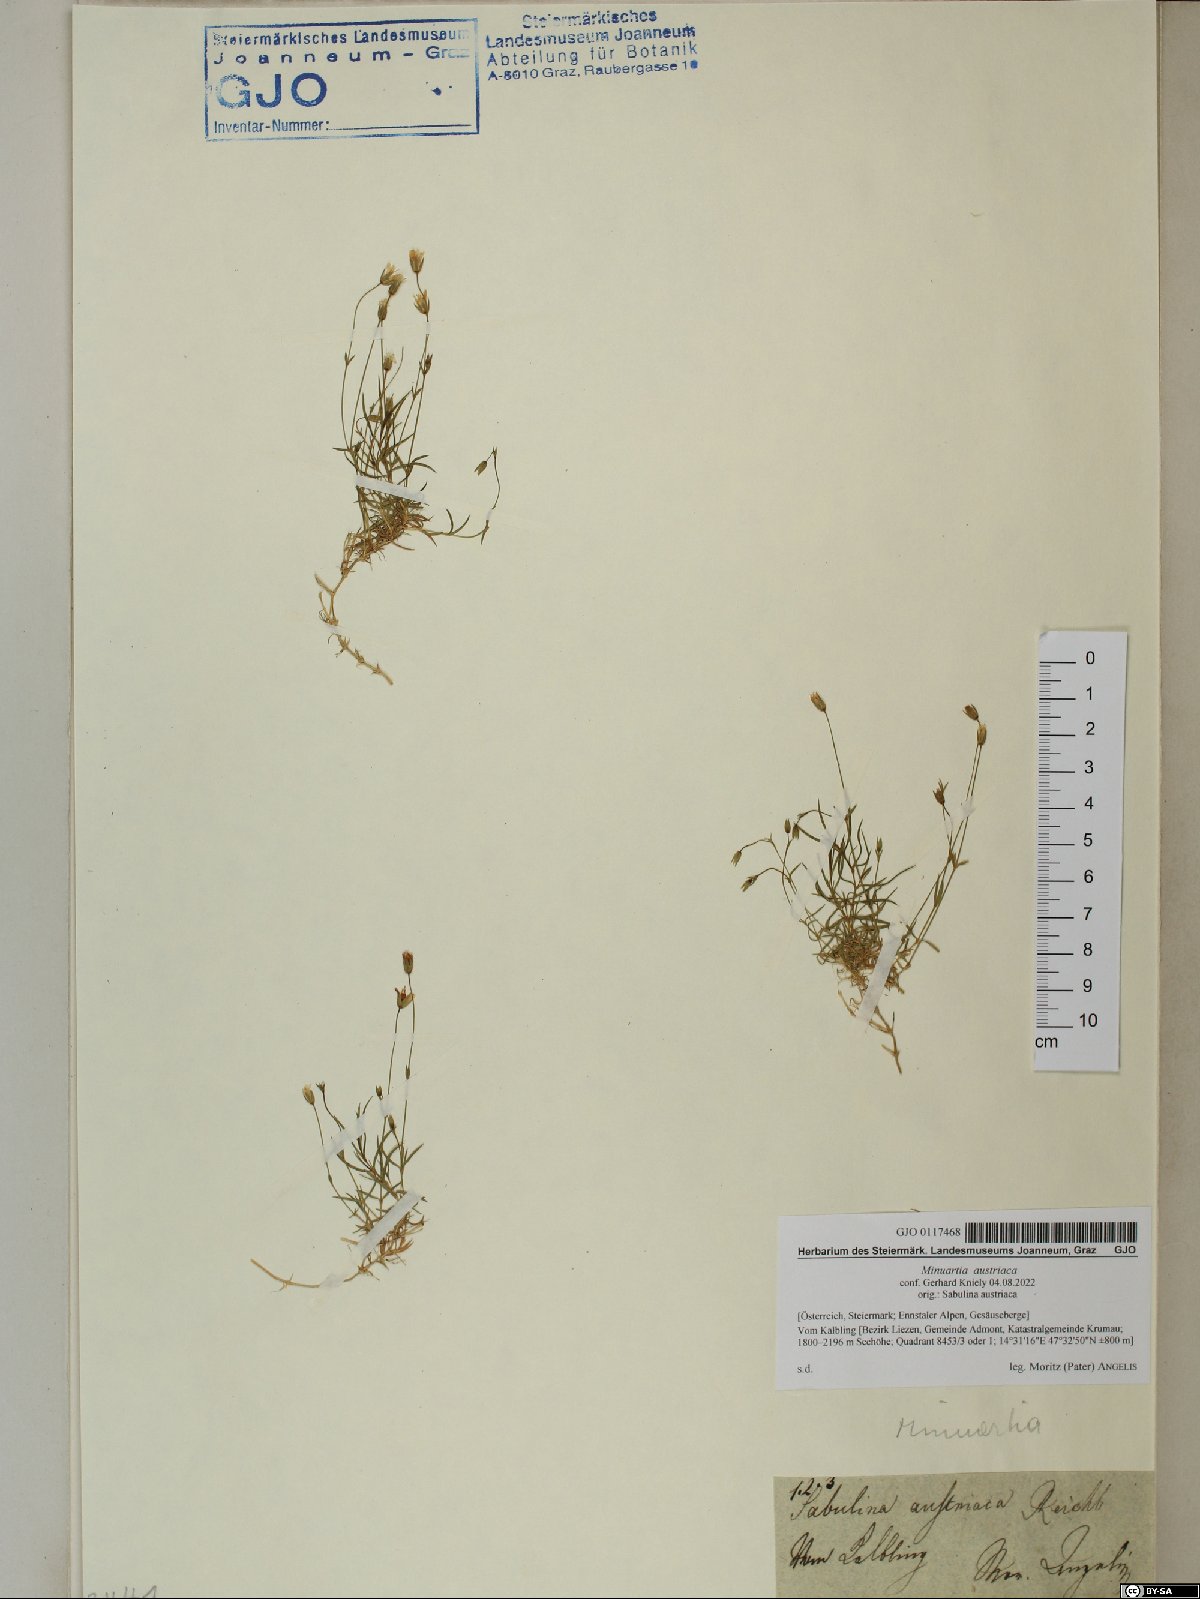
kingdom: Plantae
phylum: Tracheophyta
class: Magnoliopsida
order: Caryophyllales
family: Caryophyllaceae
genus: Sabulina
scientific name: Sabulina austriaca
